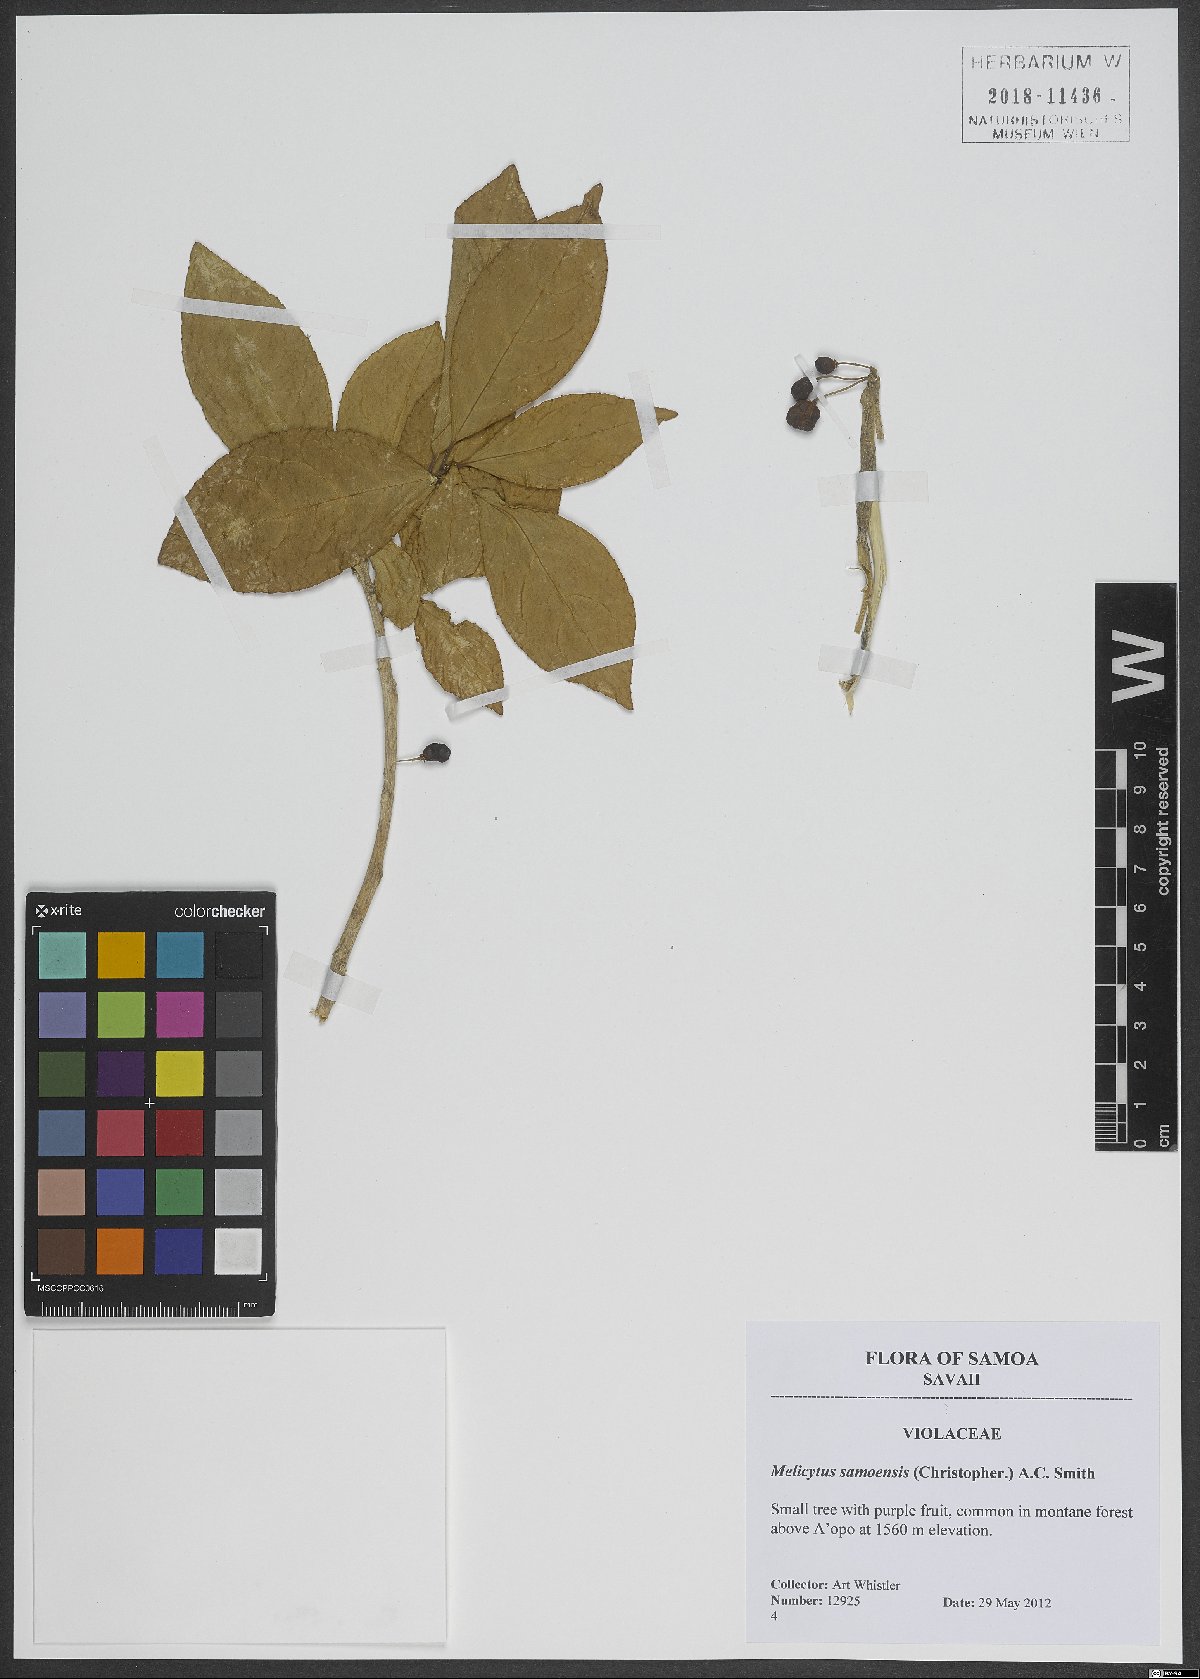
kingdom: Plantae
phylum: Tracheophyta
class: Magnoliopsida
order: Malpighiales
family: Violaceae
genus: Melicytus
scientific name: Melicytus samoensis
